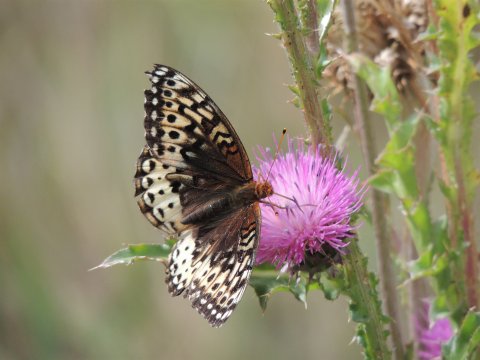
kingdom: Animalia
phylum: Arthropoda
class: Insecta
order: Lepidoptera
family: Nymphalidae
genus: Speyeria
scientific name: Speyeria cybele
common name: Great Spangled Fritillary
